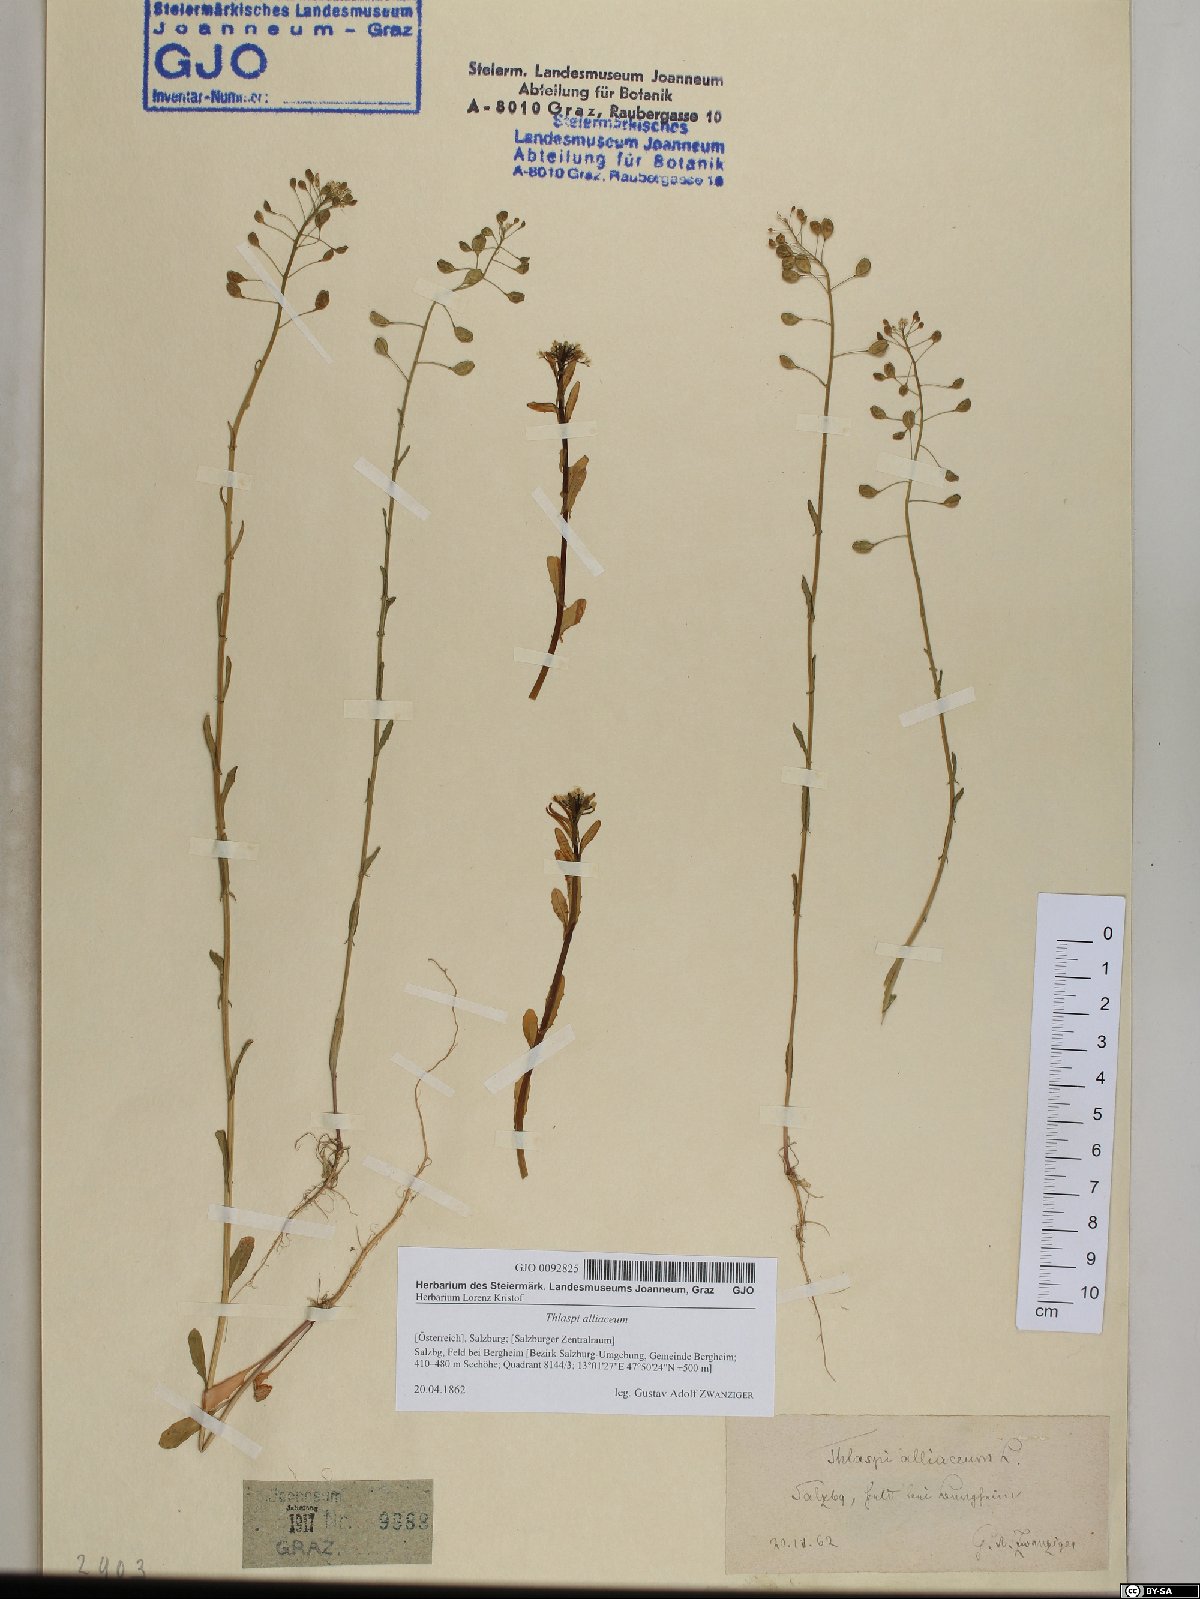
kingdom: Plantae
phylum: Tracheophyta
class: Magnoliopsida
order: Brassicales
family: Brassicaceae
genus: Mummenhoffia
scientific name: Mummenhoffia alliacea
